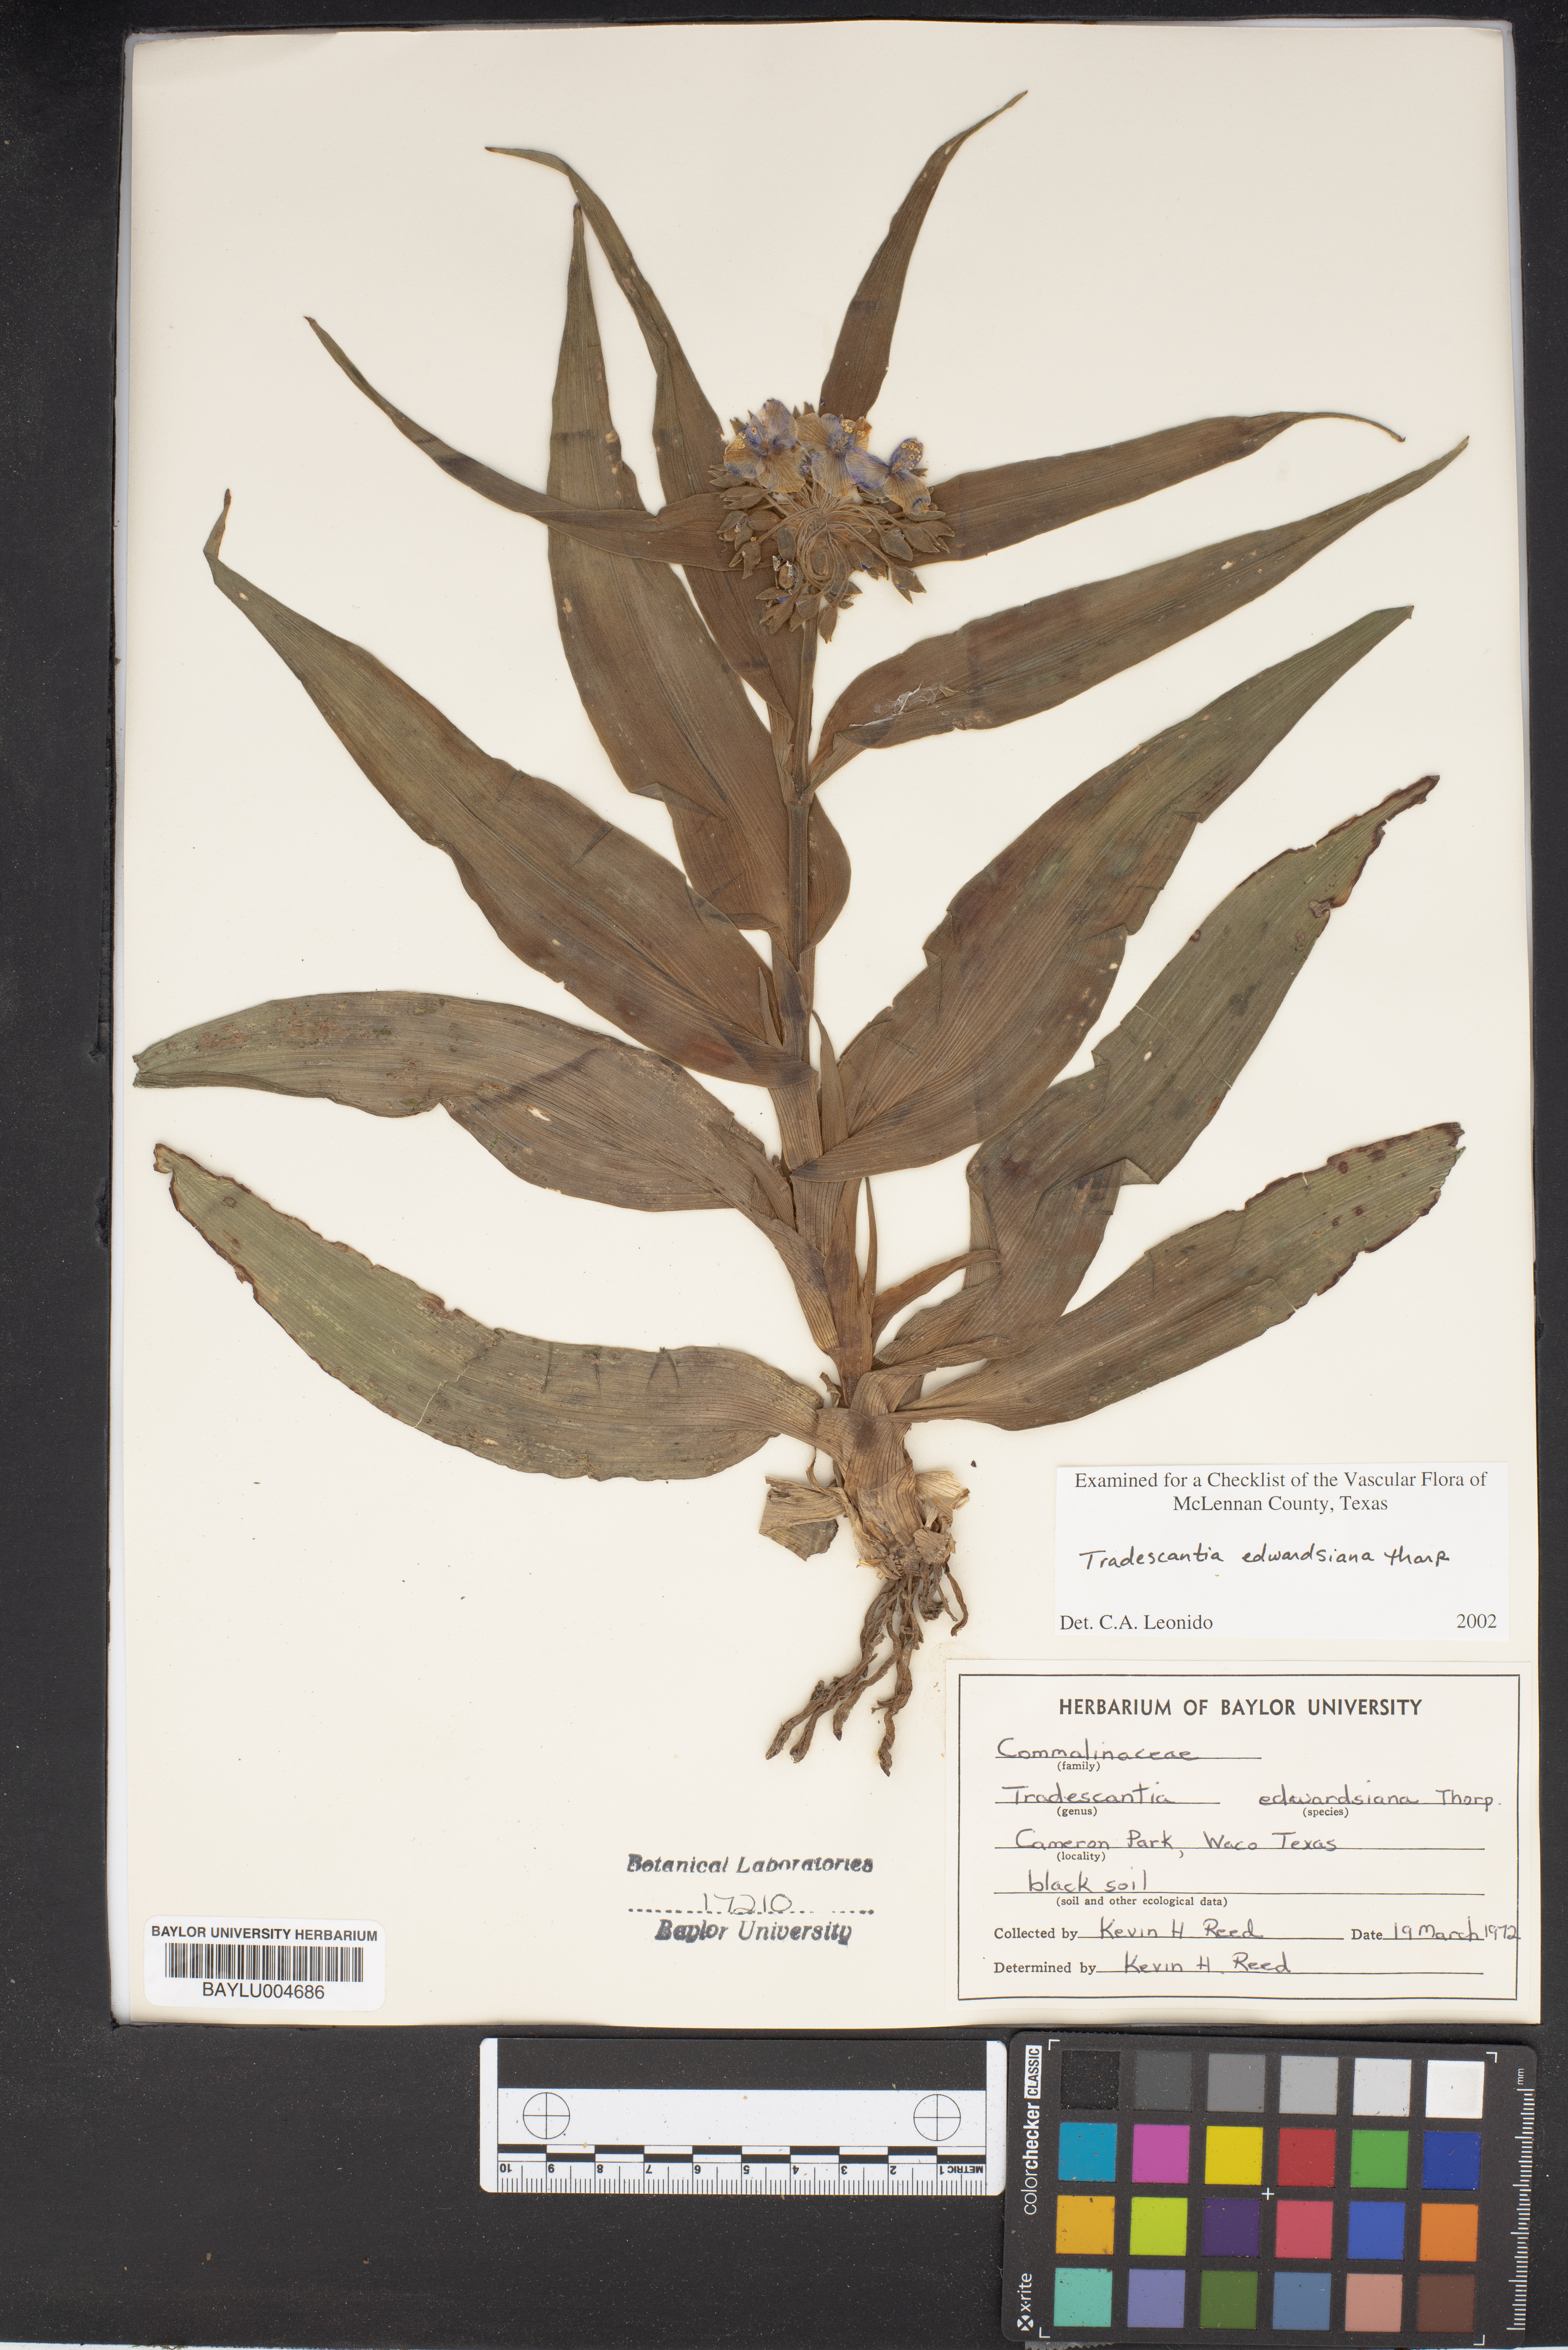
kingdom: Plantae
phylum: Tracheophyta
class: Liliopsida
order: Commelinales
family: Commelinaceae
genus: Tradescantia
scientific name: Tradescantia edwardsiana
